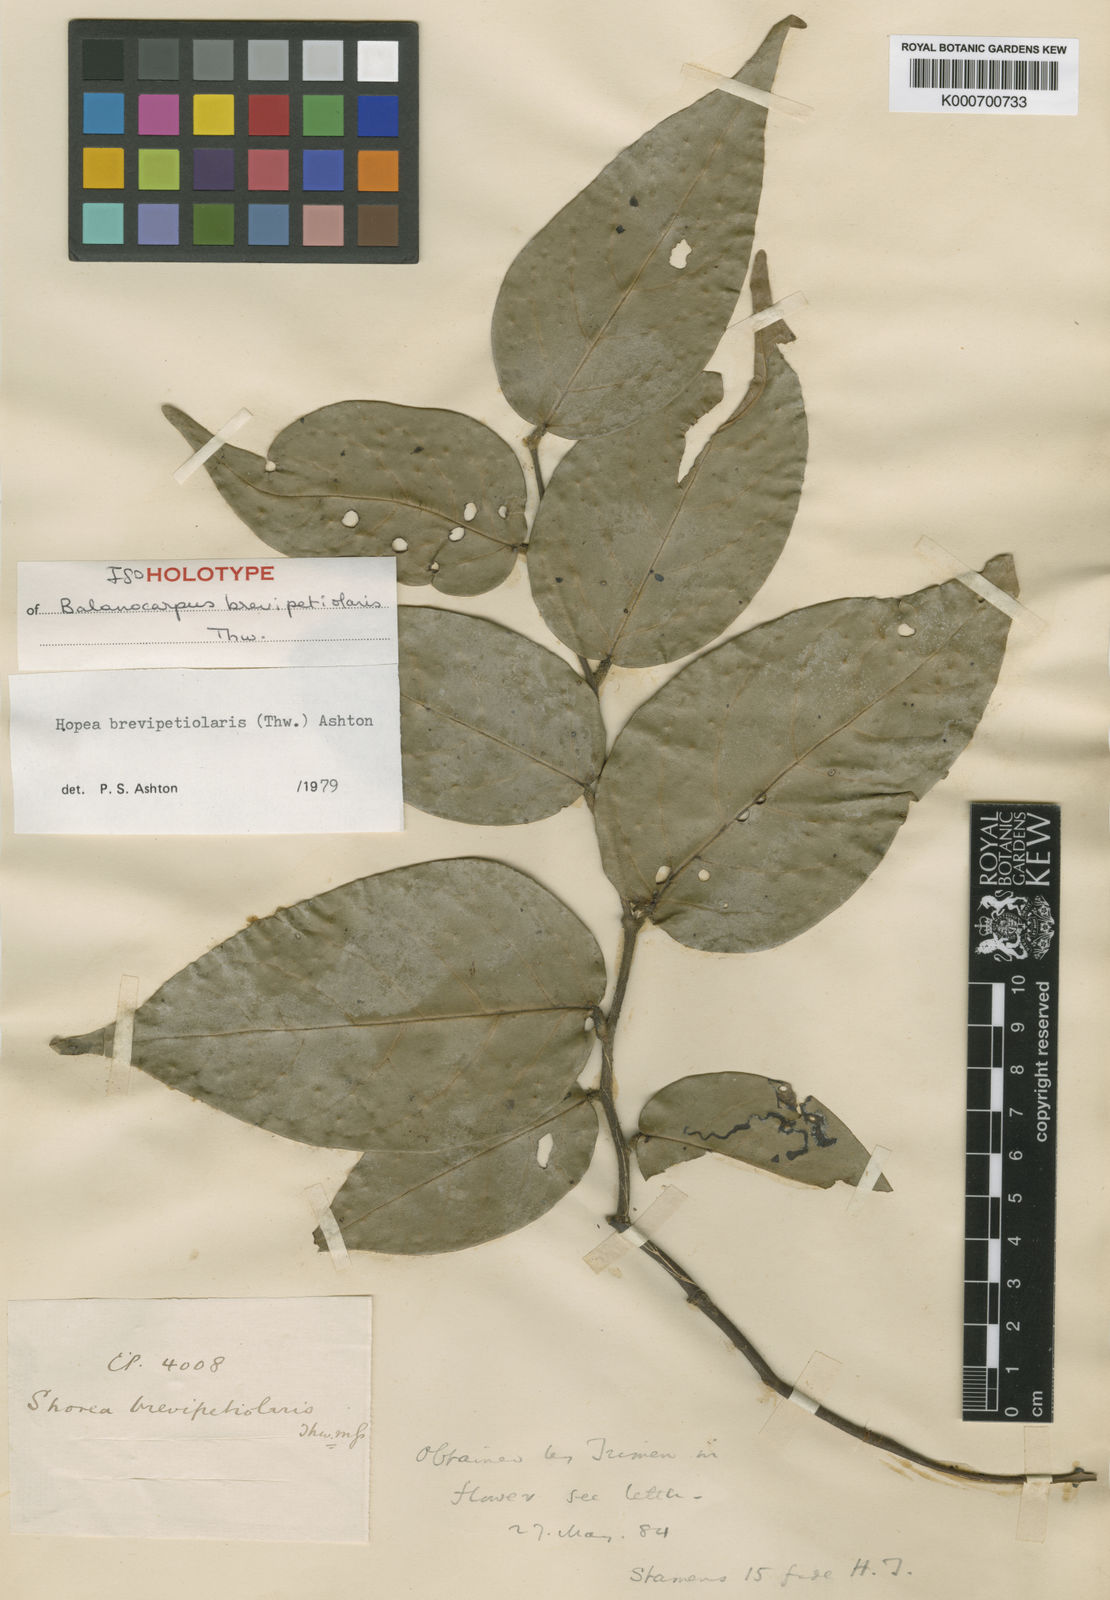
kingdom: Plantae
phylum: Tracheophyta
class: Magnoliopsida
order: Malvales
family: Dipterocarpaceae
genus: Hopea
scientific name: Hopea brevipetiolaris
